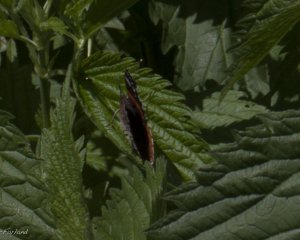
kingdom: Animalia
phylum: Arthropoda
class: Insecta
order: Lepidoptera
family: Nymphalidae
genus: Vanessa
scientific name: Vanessa atalanta
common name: Red Admiral
